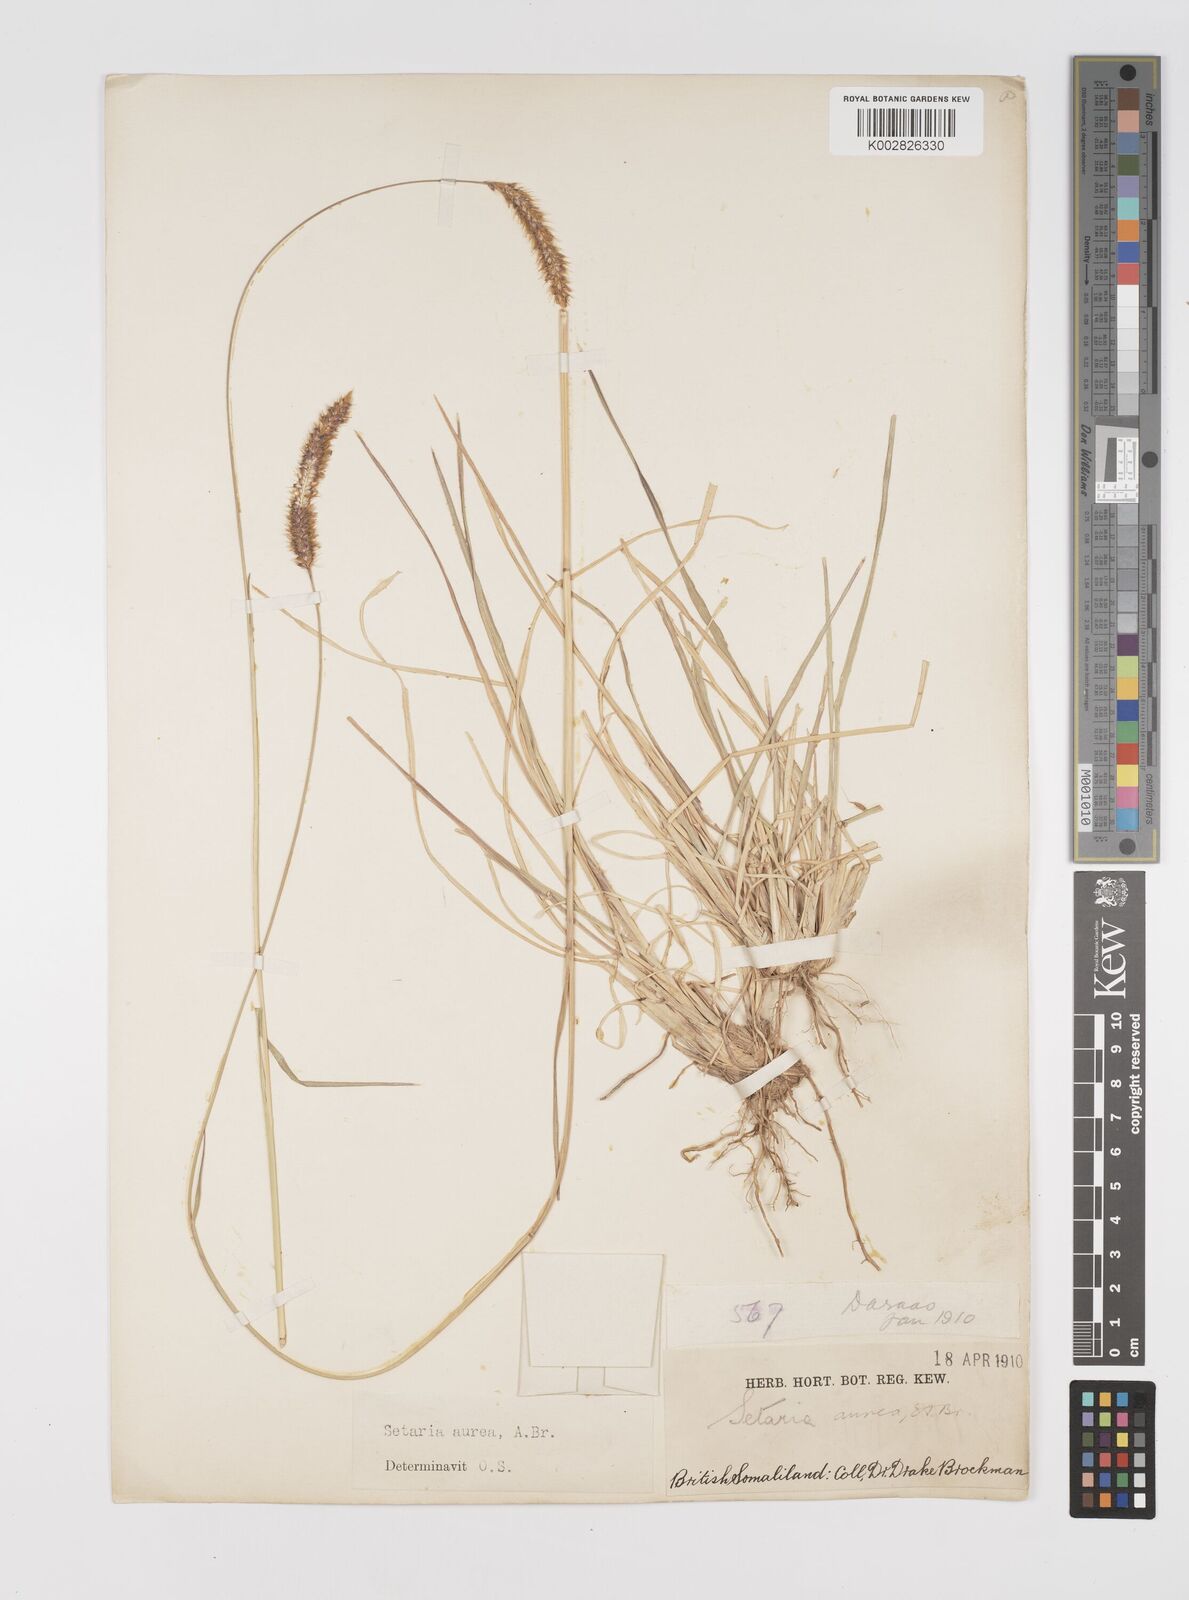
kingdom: Plantae
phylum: Tracheophyta
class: Liliopsida
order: Poales
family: Poaceae
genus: Setaria
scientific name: Setaria sphacelata
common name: African bristlegrass
